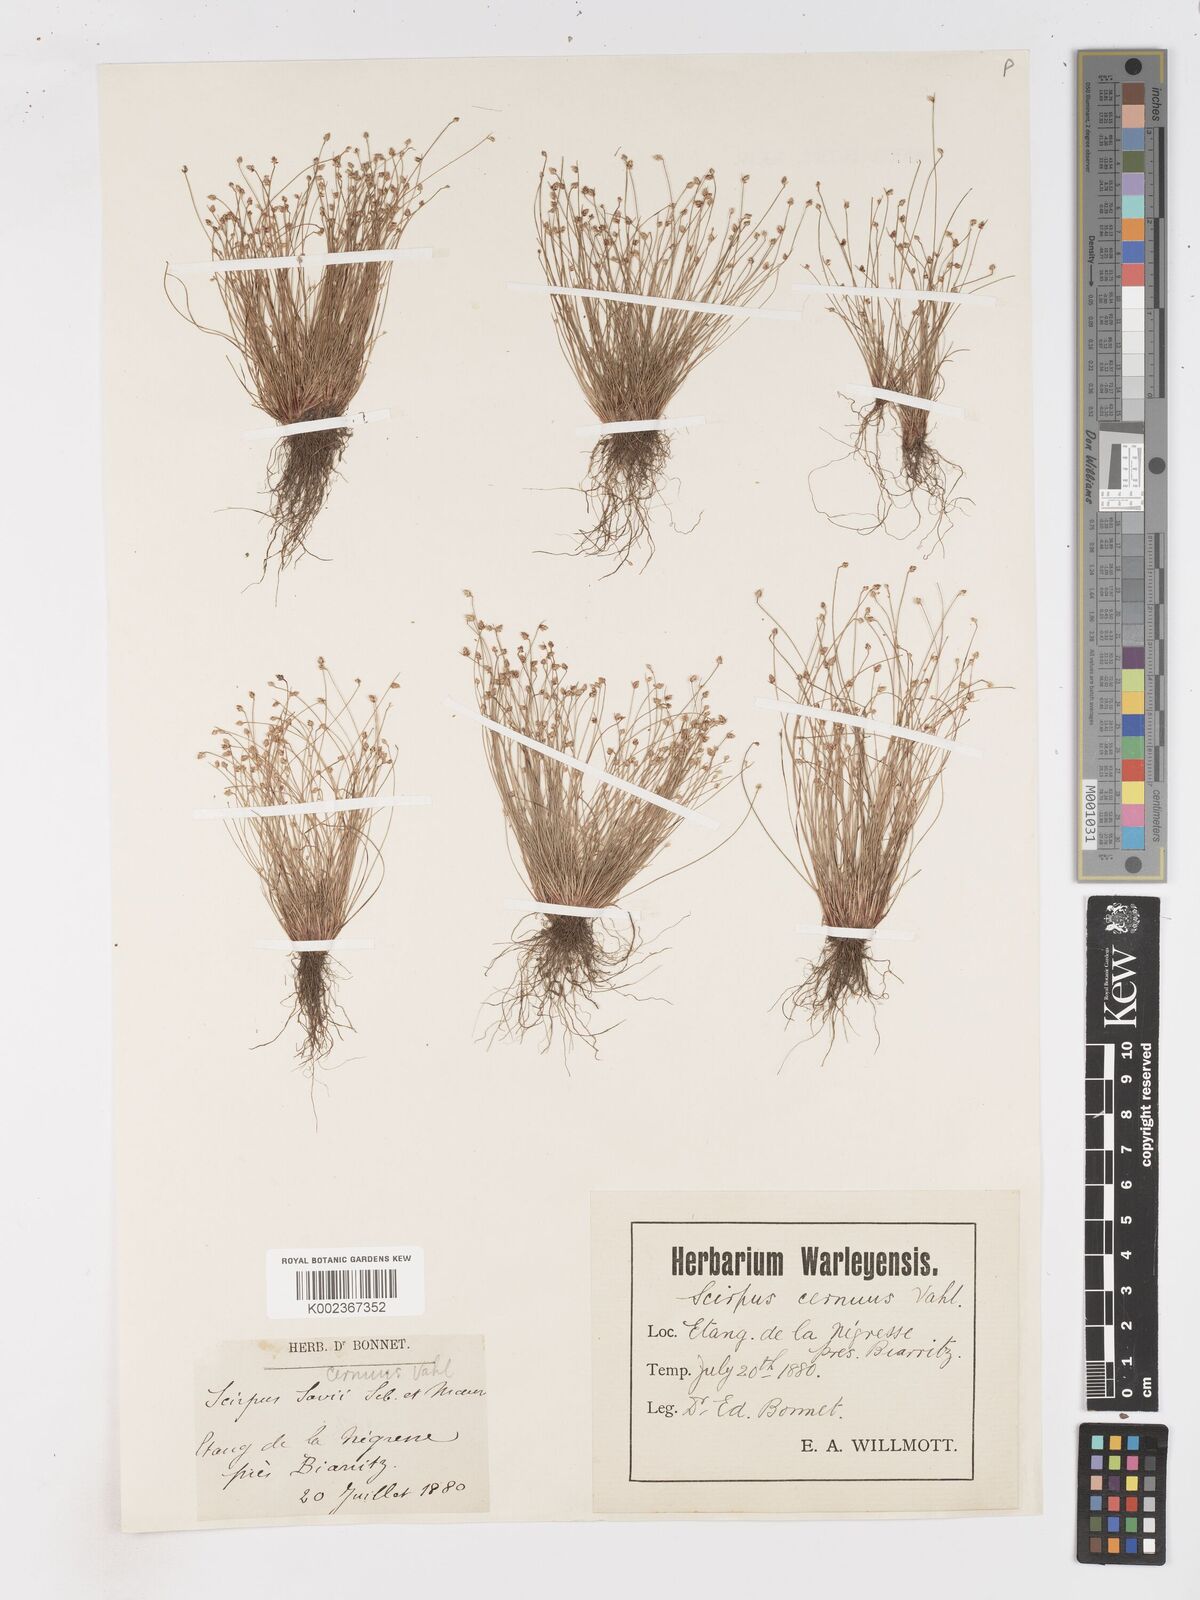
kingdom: Plantae
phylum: Tracheophyta
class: Liliopsida
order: Poales
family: Cyperaceae
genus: Isolepis
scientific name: Isolepis cernua
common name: Slender club-rush
